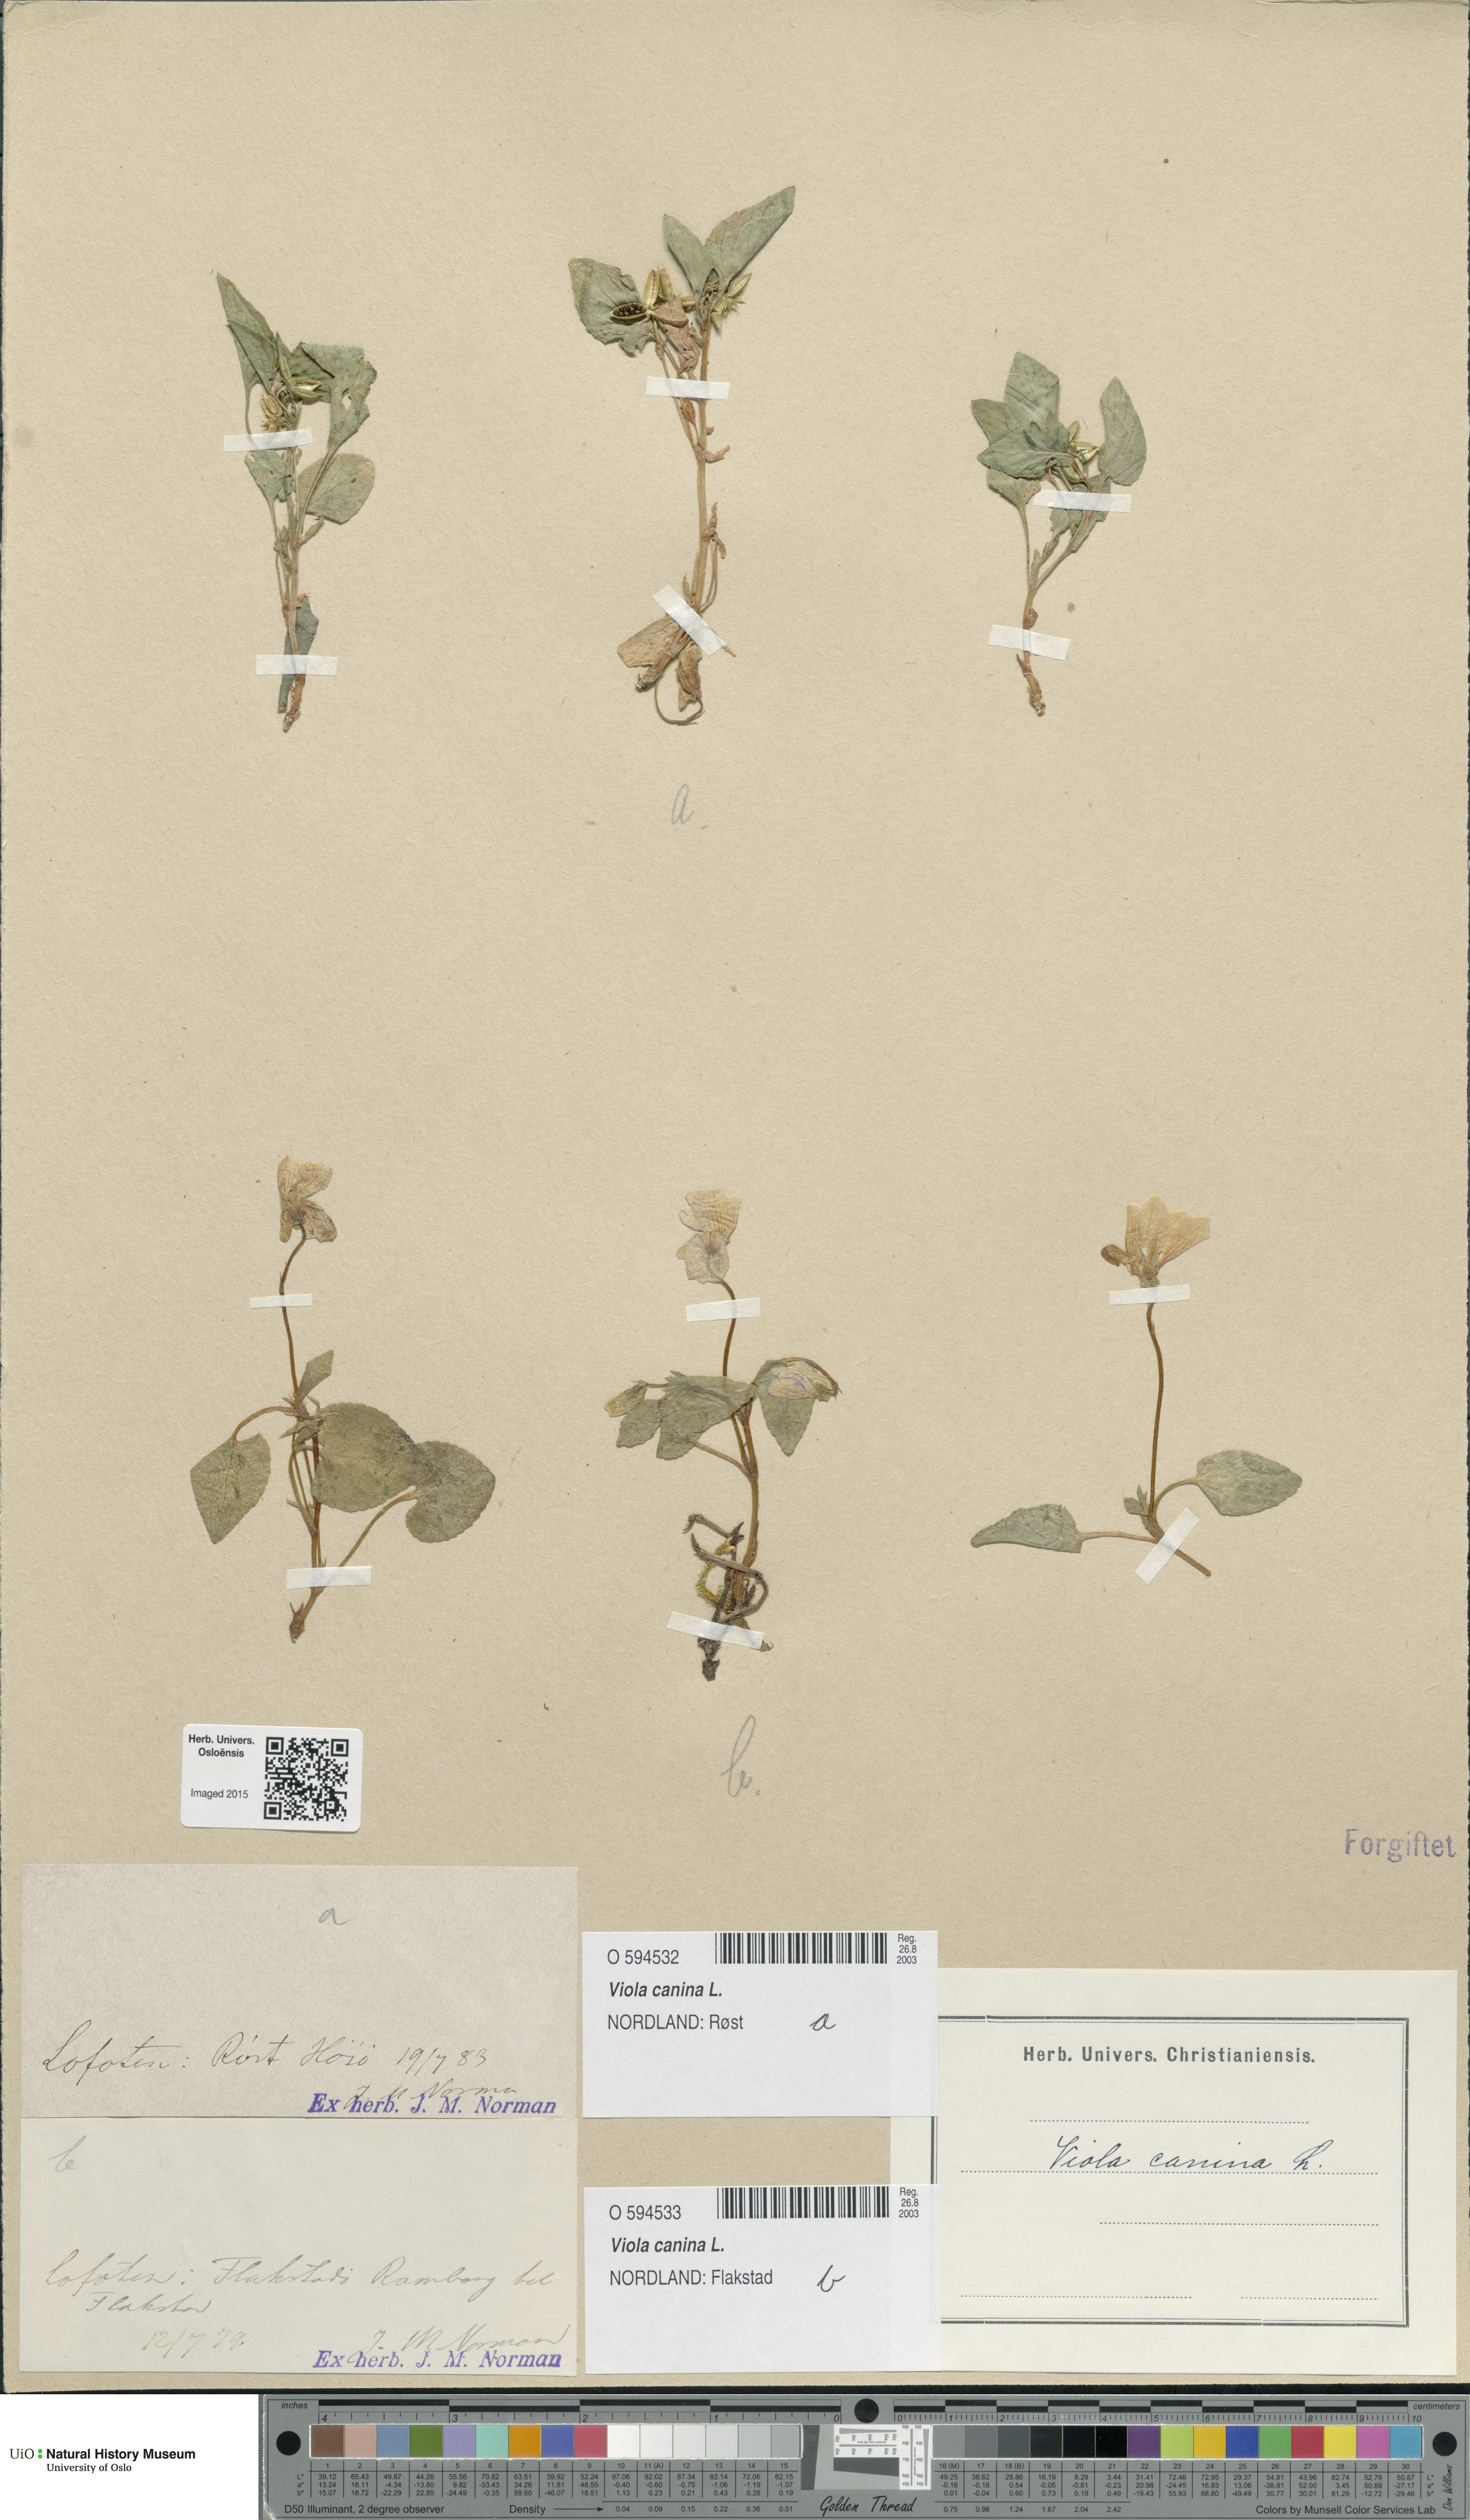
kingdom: Plantae
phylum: Tracheophyta
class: Magnoliopsida
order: Malpighiales
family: Violaceae
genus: Viola
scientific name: Viola canina
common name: Heath dog-violet
